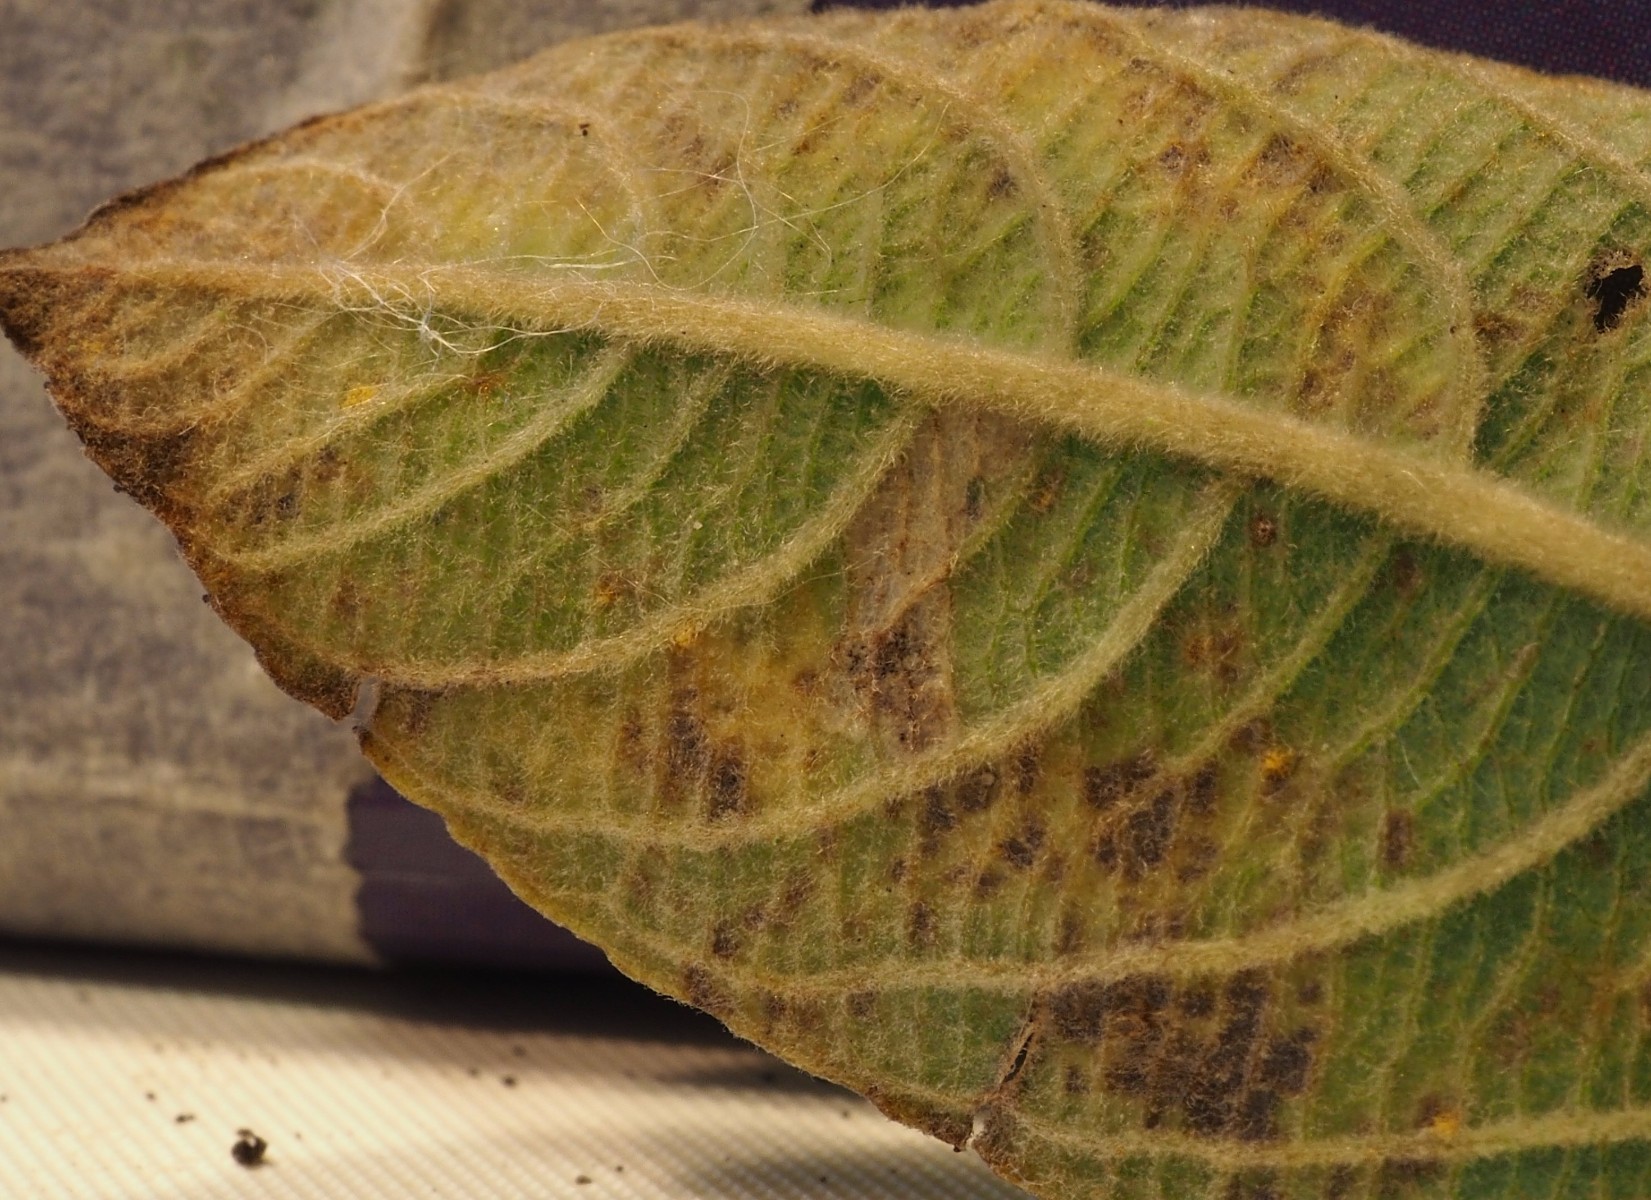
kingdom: Fungi
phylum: Basidiomycota
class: Pucciniomycetes
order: Pucciniales
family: Melampsoraceae
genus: Melampsora
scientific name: Melampsora epitea
